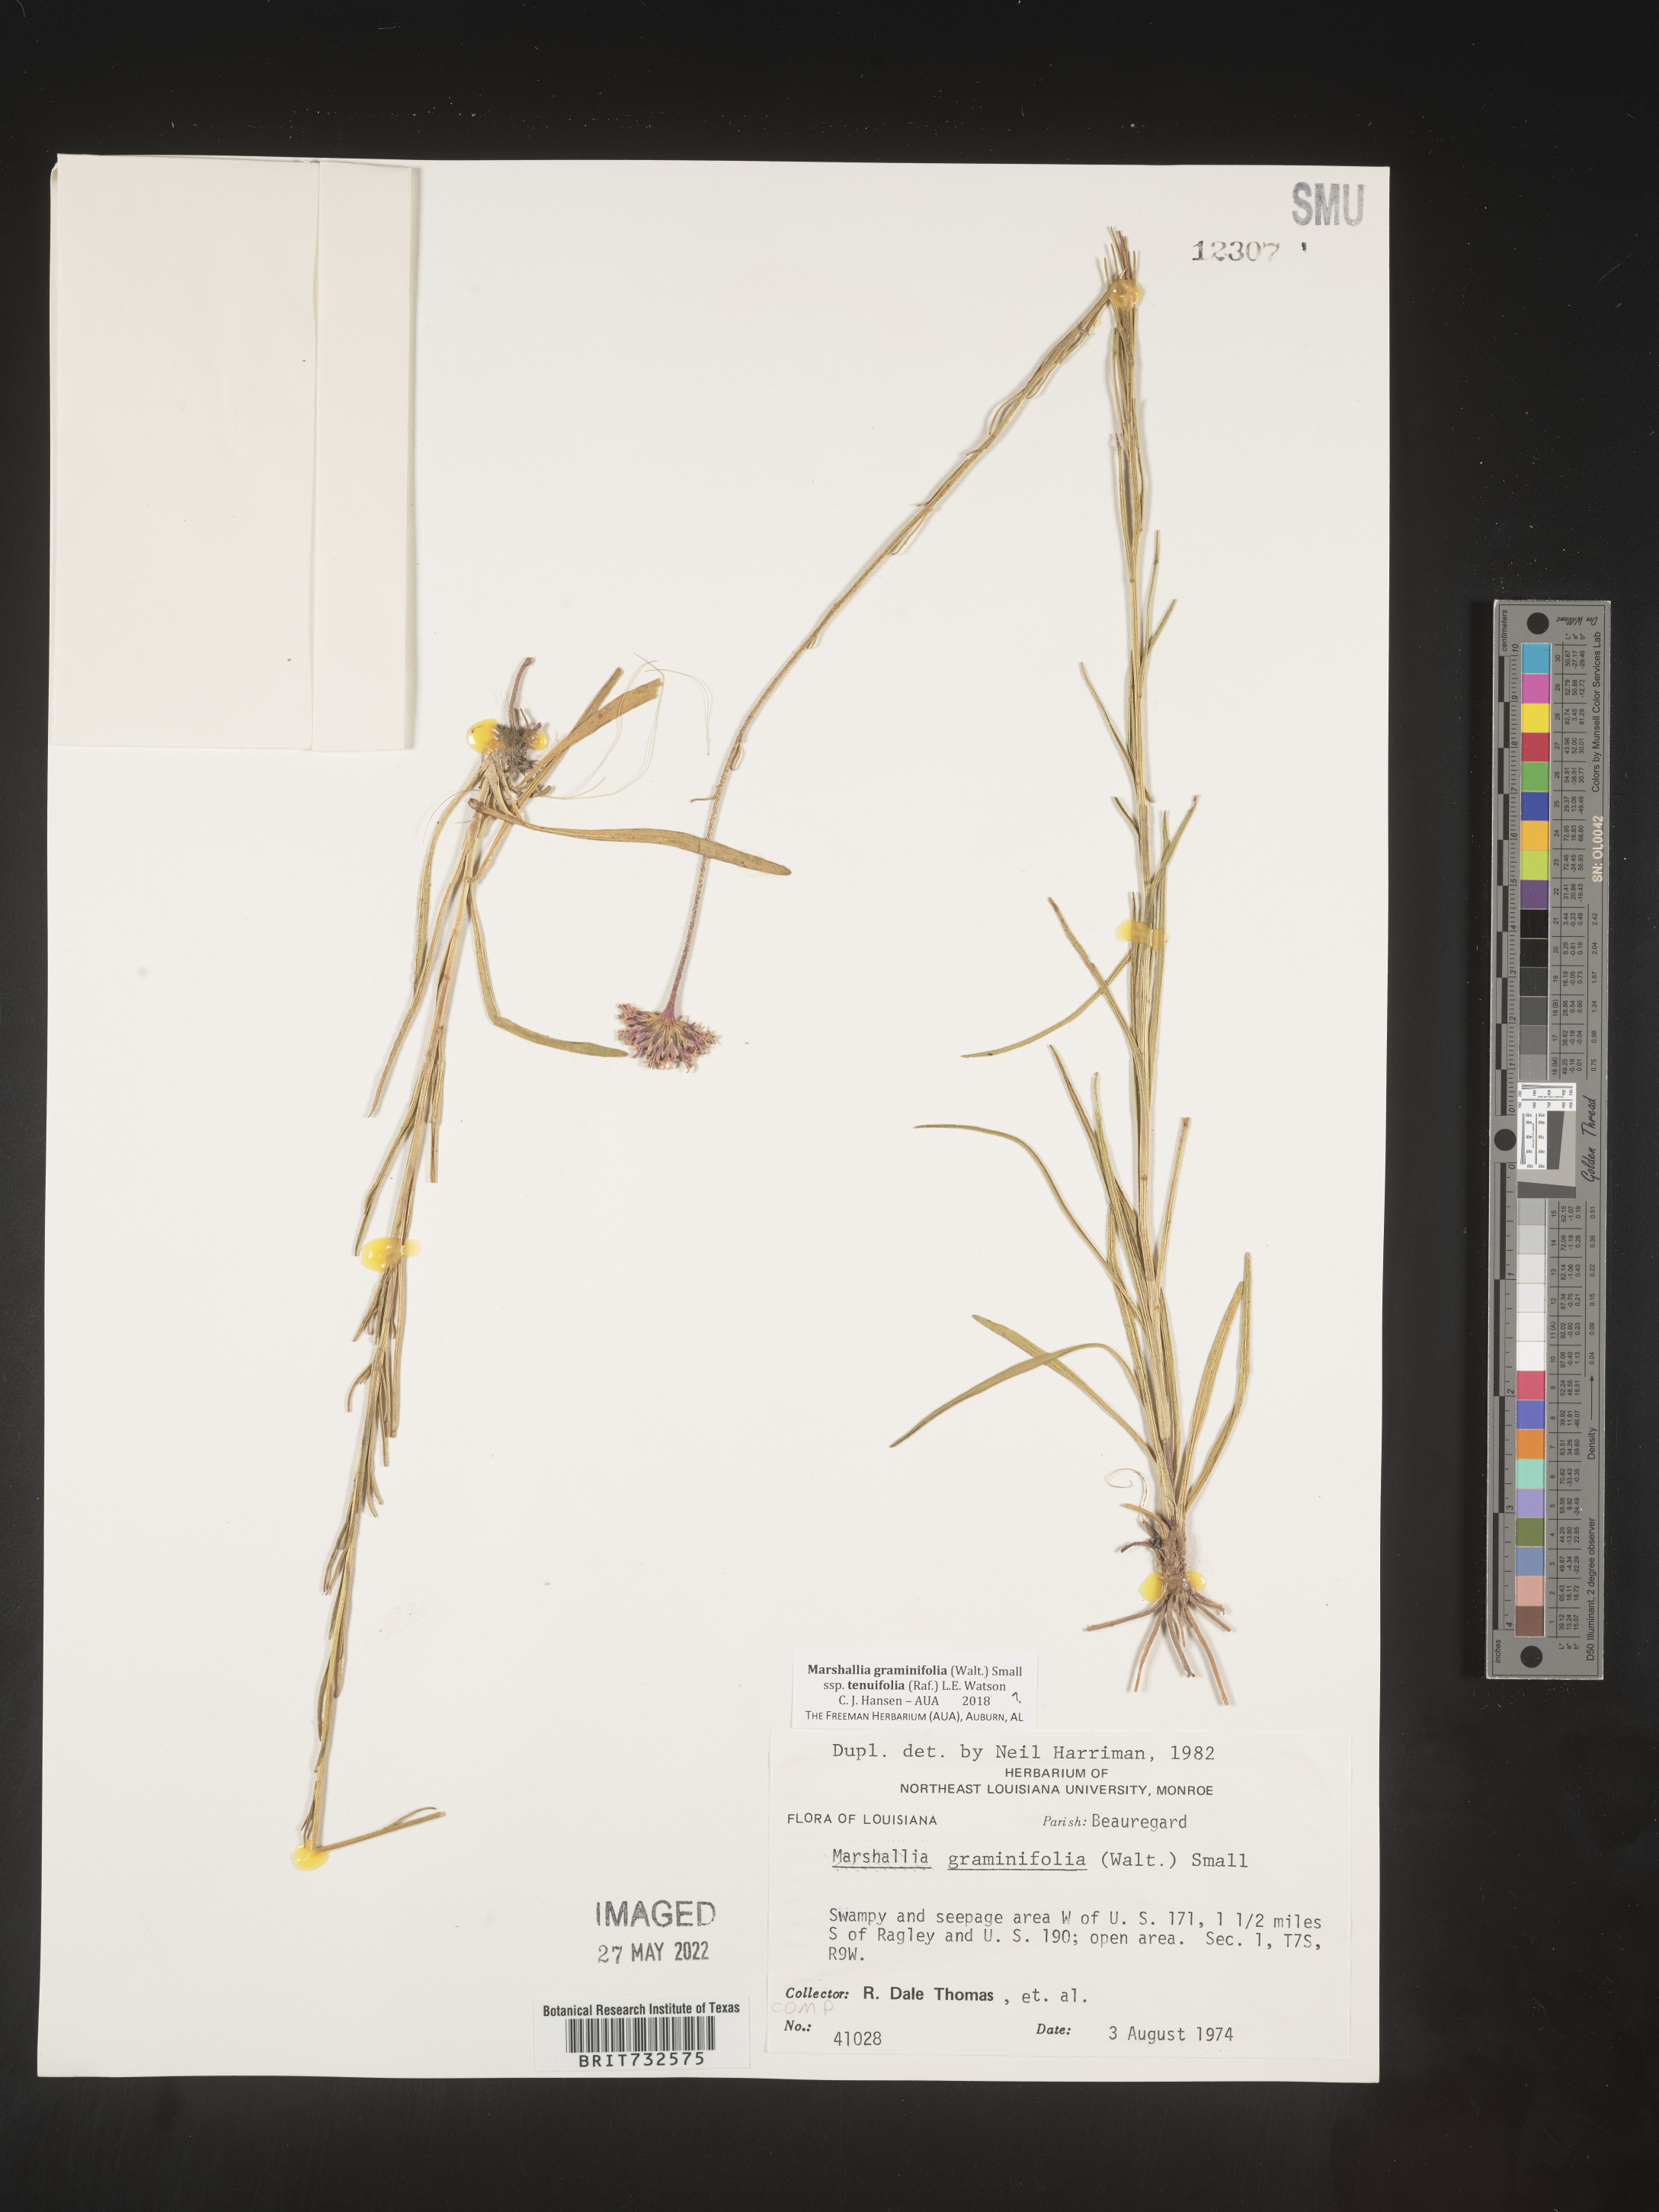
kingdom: Plantae
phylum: Tracheophyta
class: Magnoliopsida
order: Asterales
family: Asteraceae
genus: Marshallia
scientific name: Marshallia graminifolia
